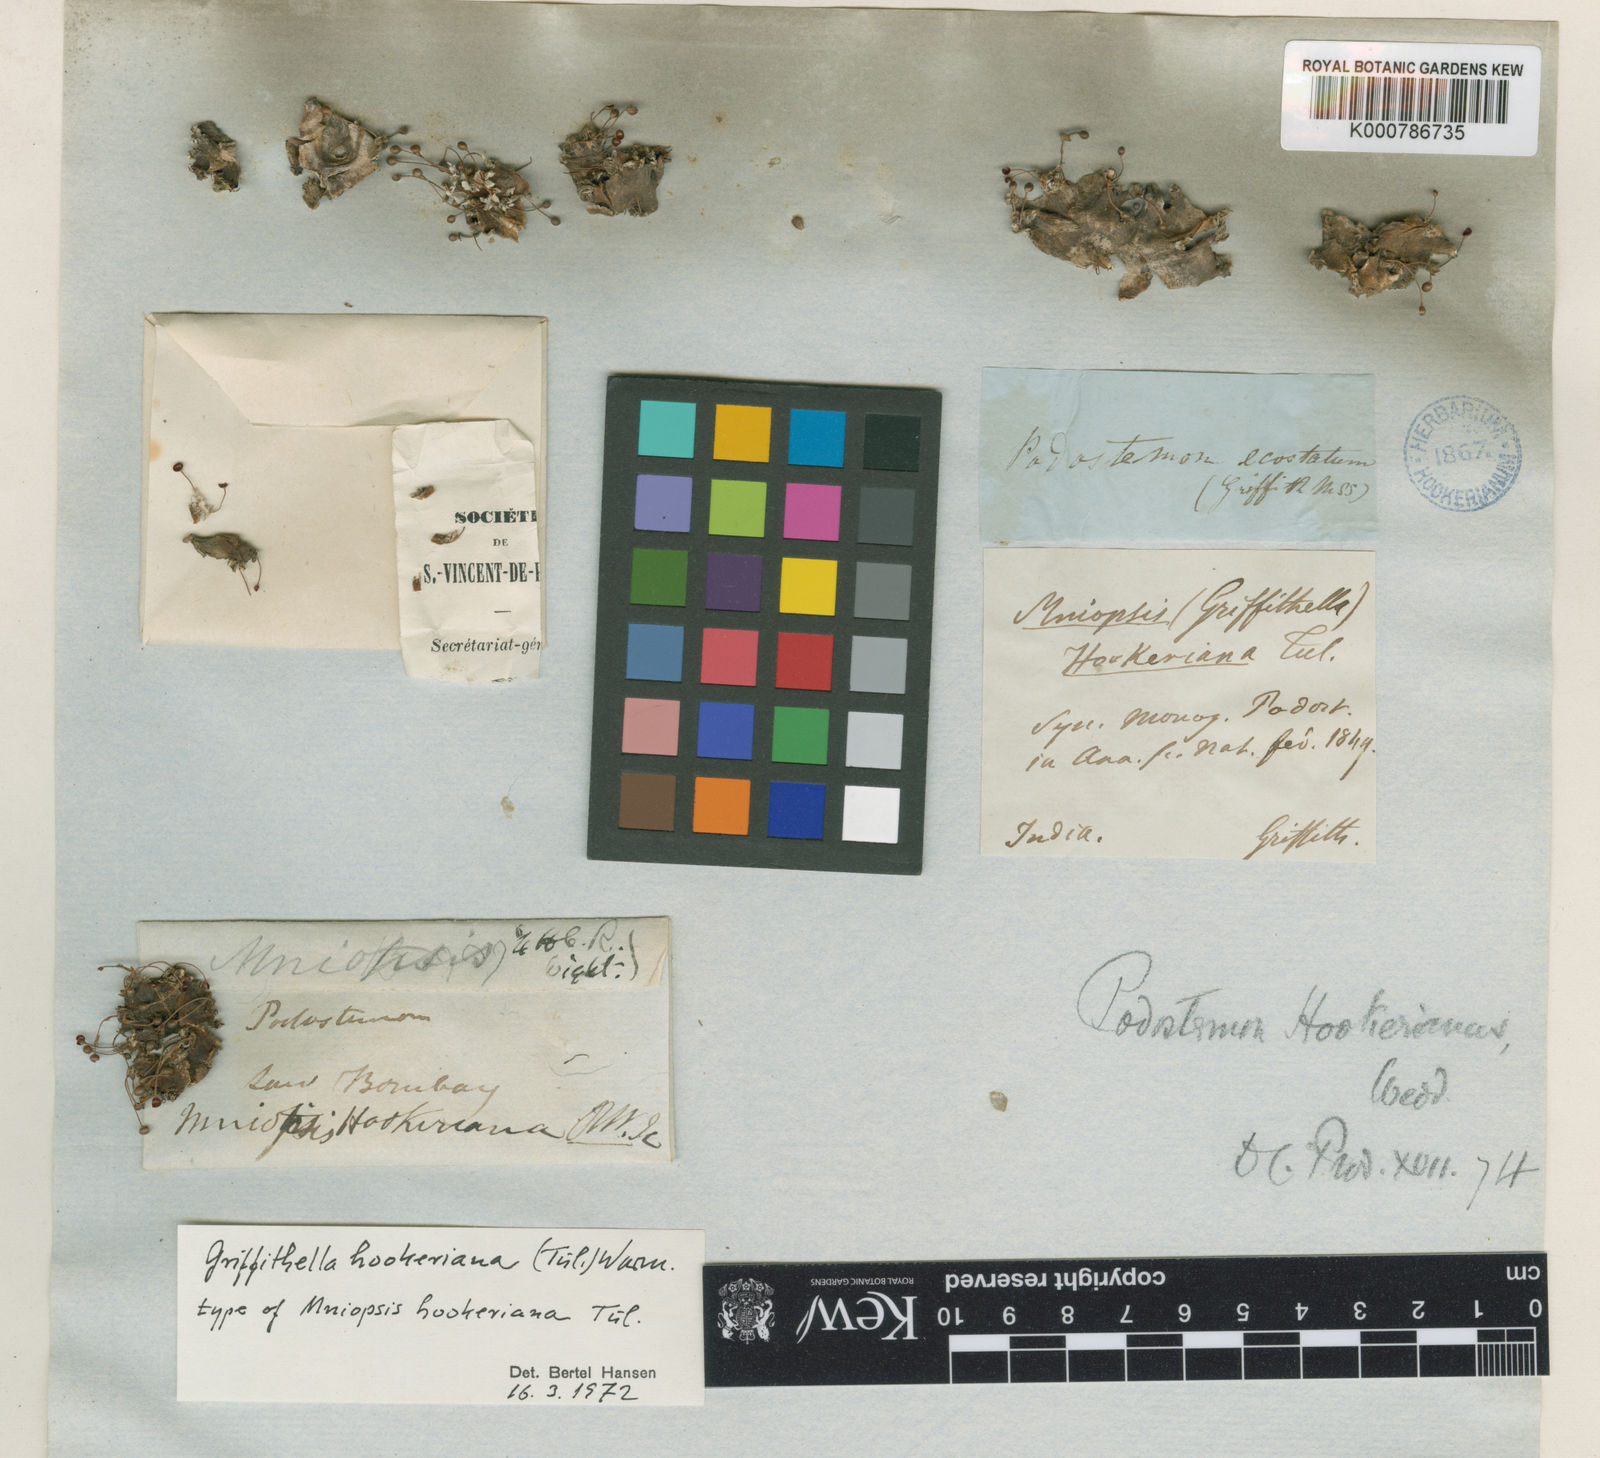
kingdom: Plantae
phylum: Tracheophyta
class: Magnoliopsida
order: Malpighiales
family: Podostemaceae
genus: Cladopus
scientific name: Cladopus hookeriana
